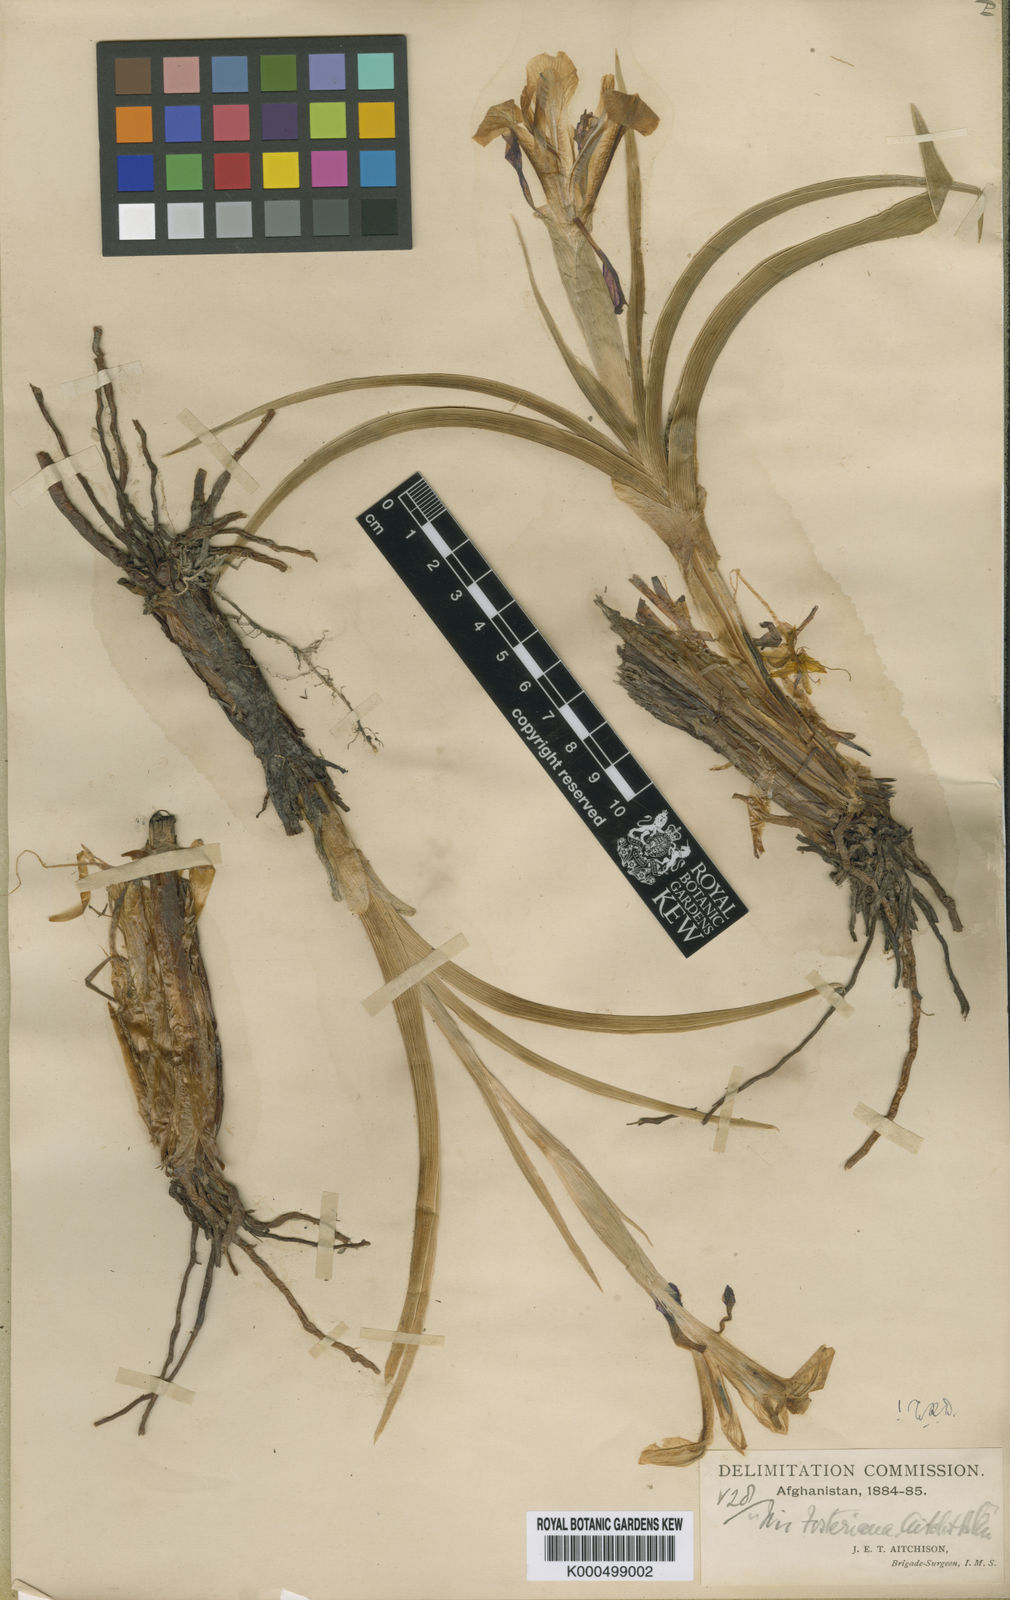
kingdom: Plantae
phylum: Tracheophyta
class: Liliopsida
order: Asparagales
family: Iridaceae
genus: Iris
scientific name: Iris rosenbachiana
